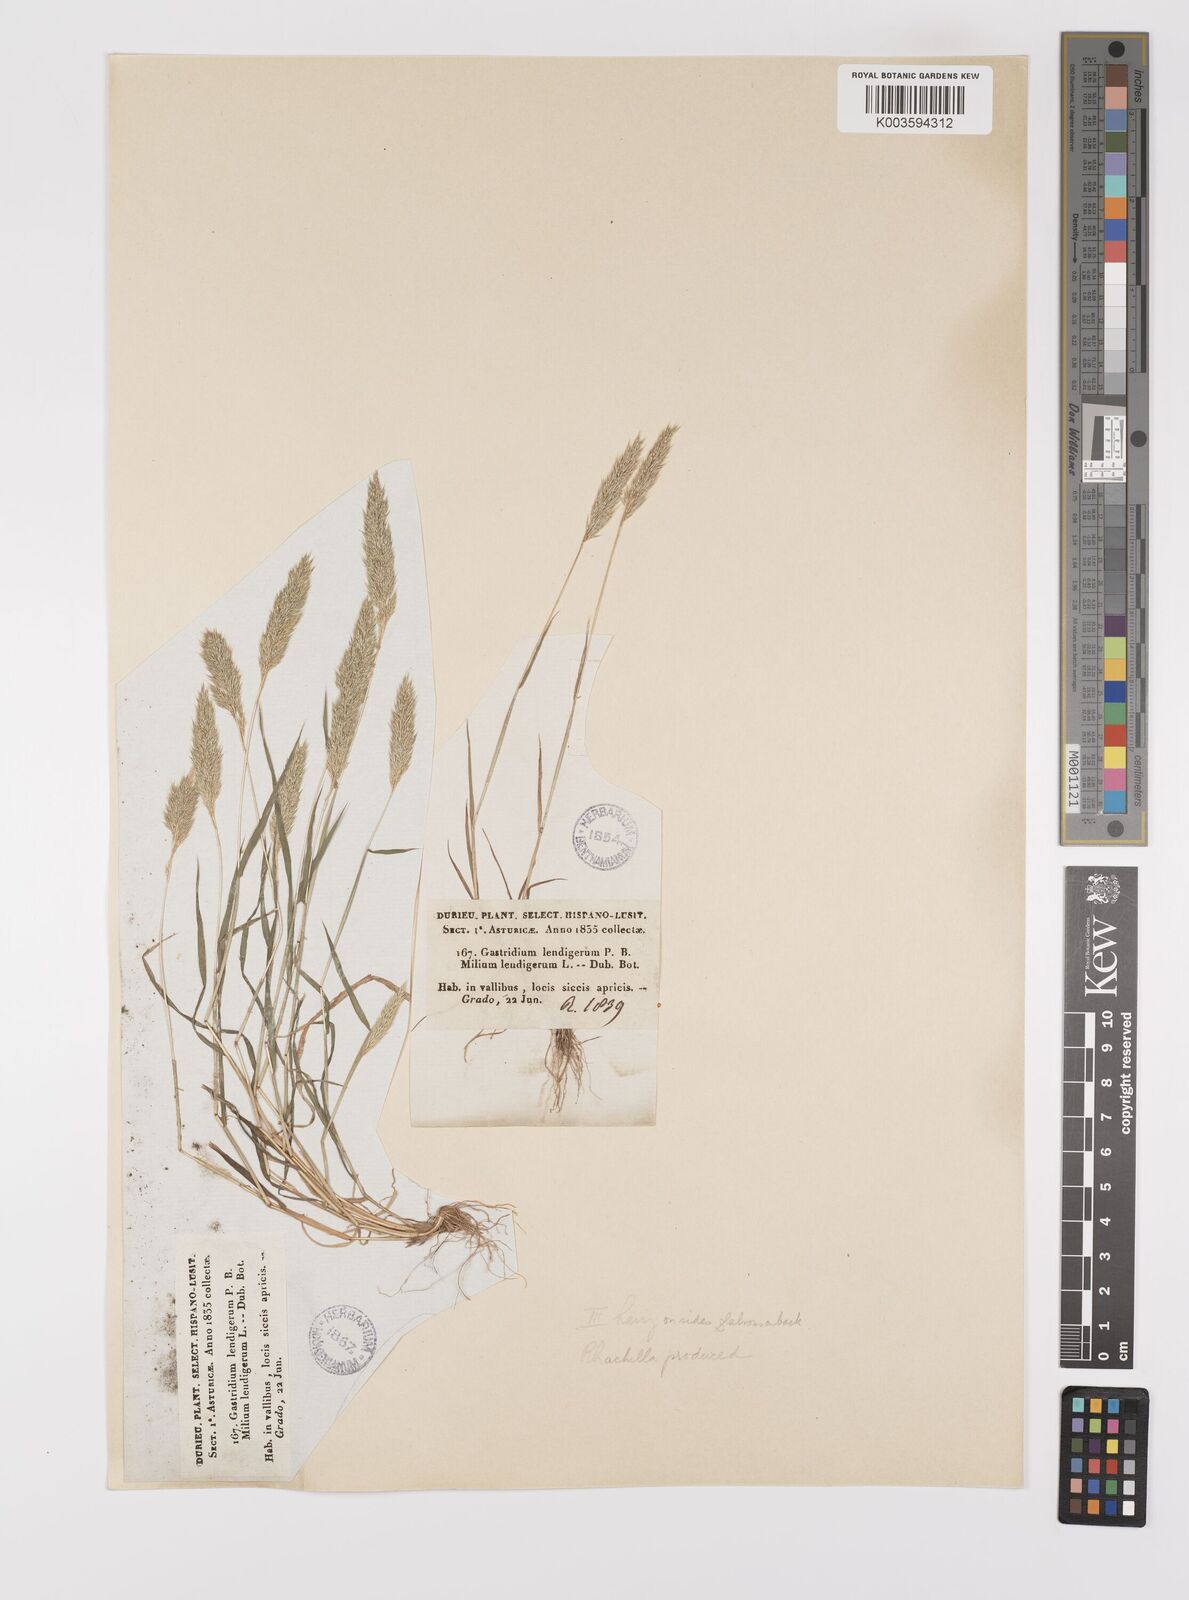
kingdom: Plantae
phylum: Tracheophyta
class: Liliopsida
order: Poales
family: Poaceae
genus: Gastridium
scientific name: Gastridium ventricosum
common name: Nit-grass
